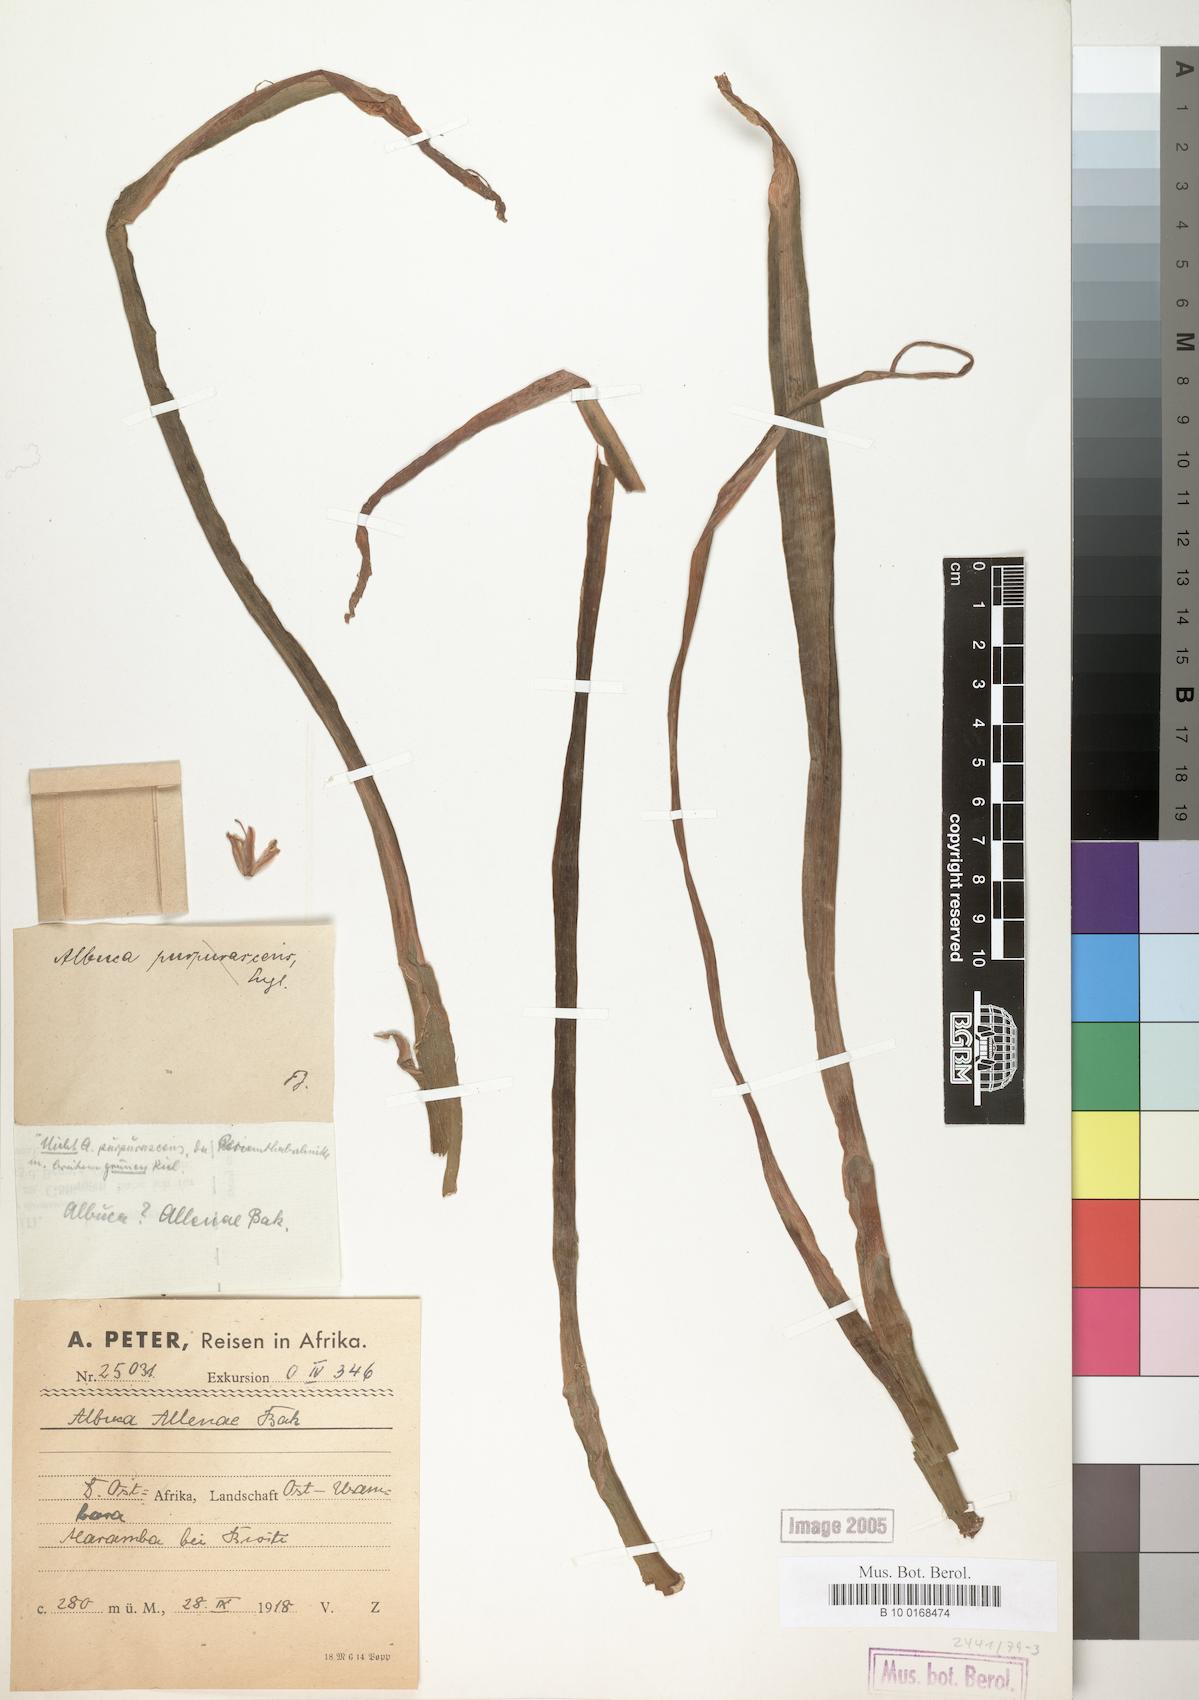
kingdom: Plantae
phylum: Tracheophyta
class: Liliopsida
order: Asparagales
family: Asparagaceae
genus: Albuca
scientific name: Albuca abyssinica
